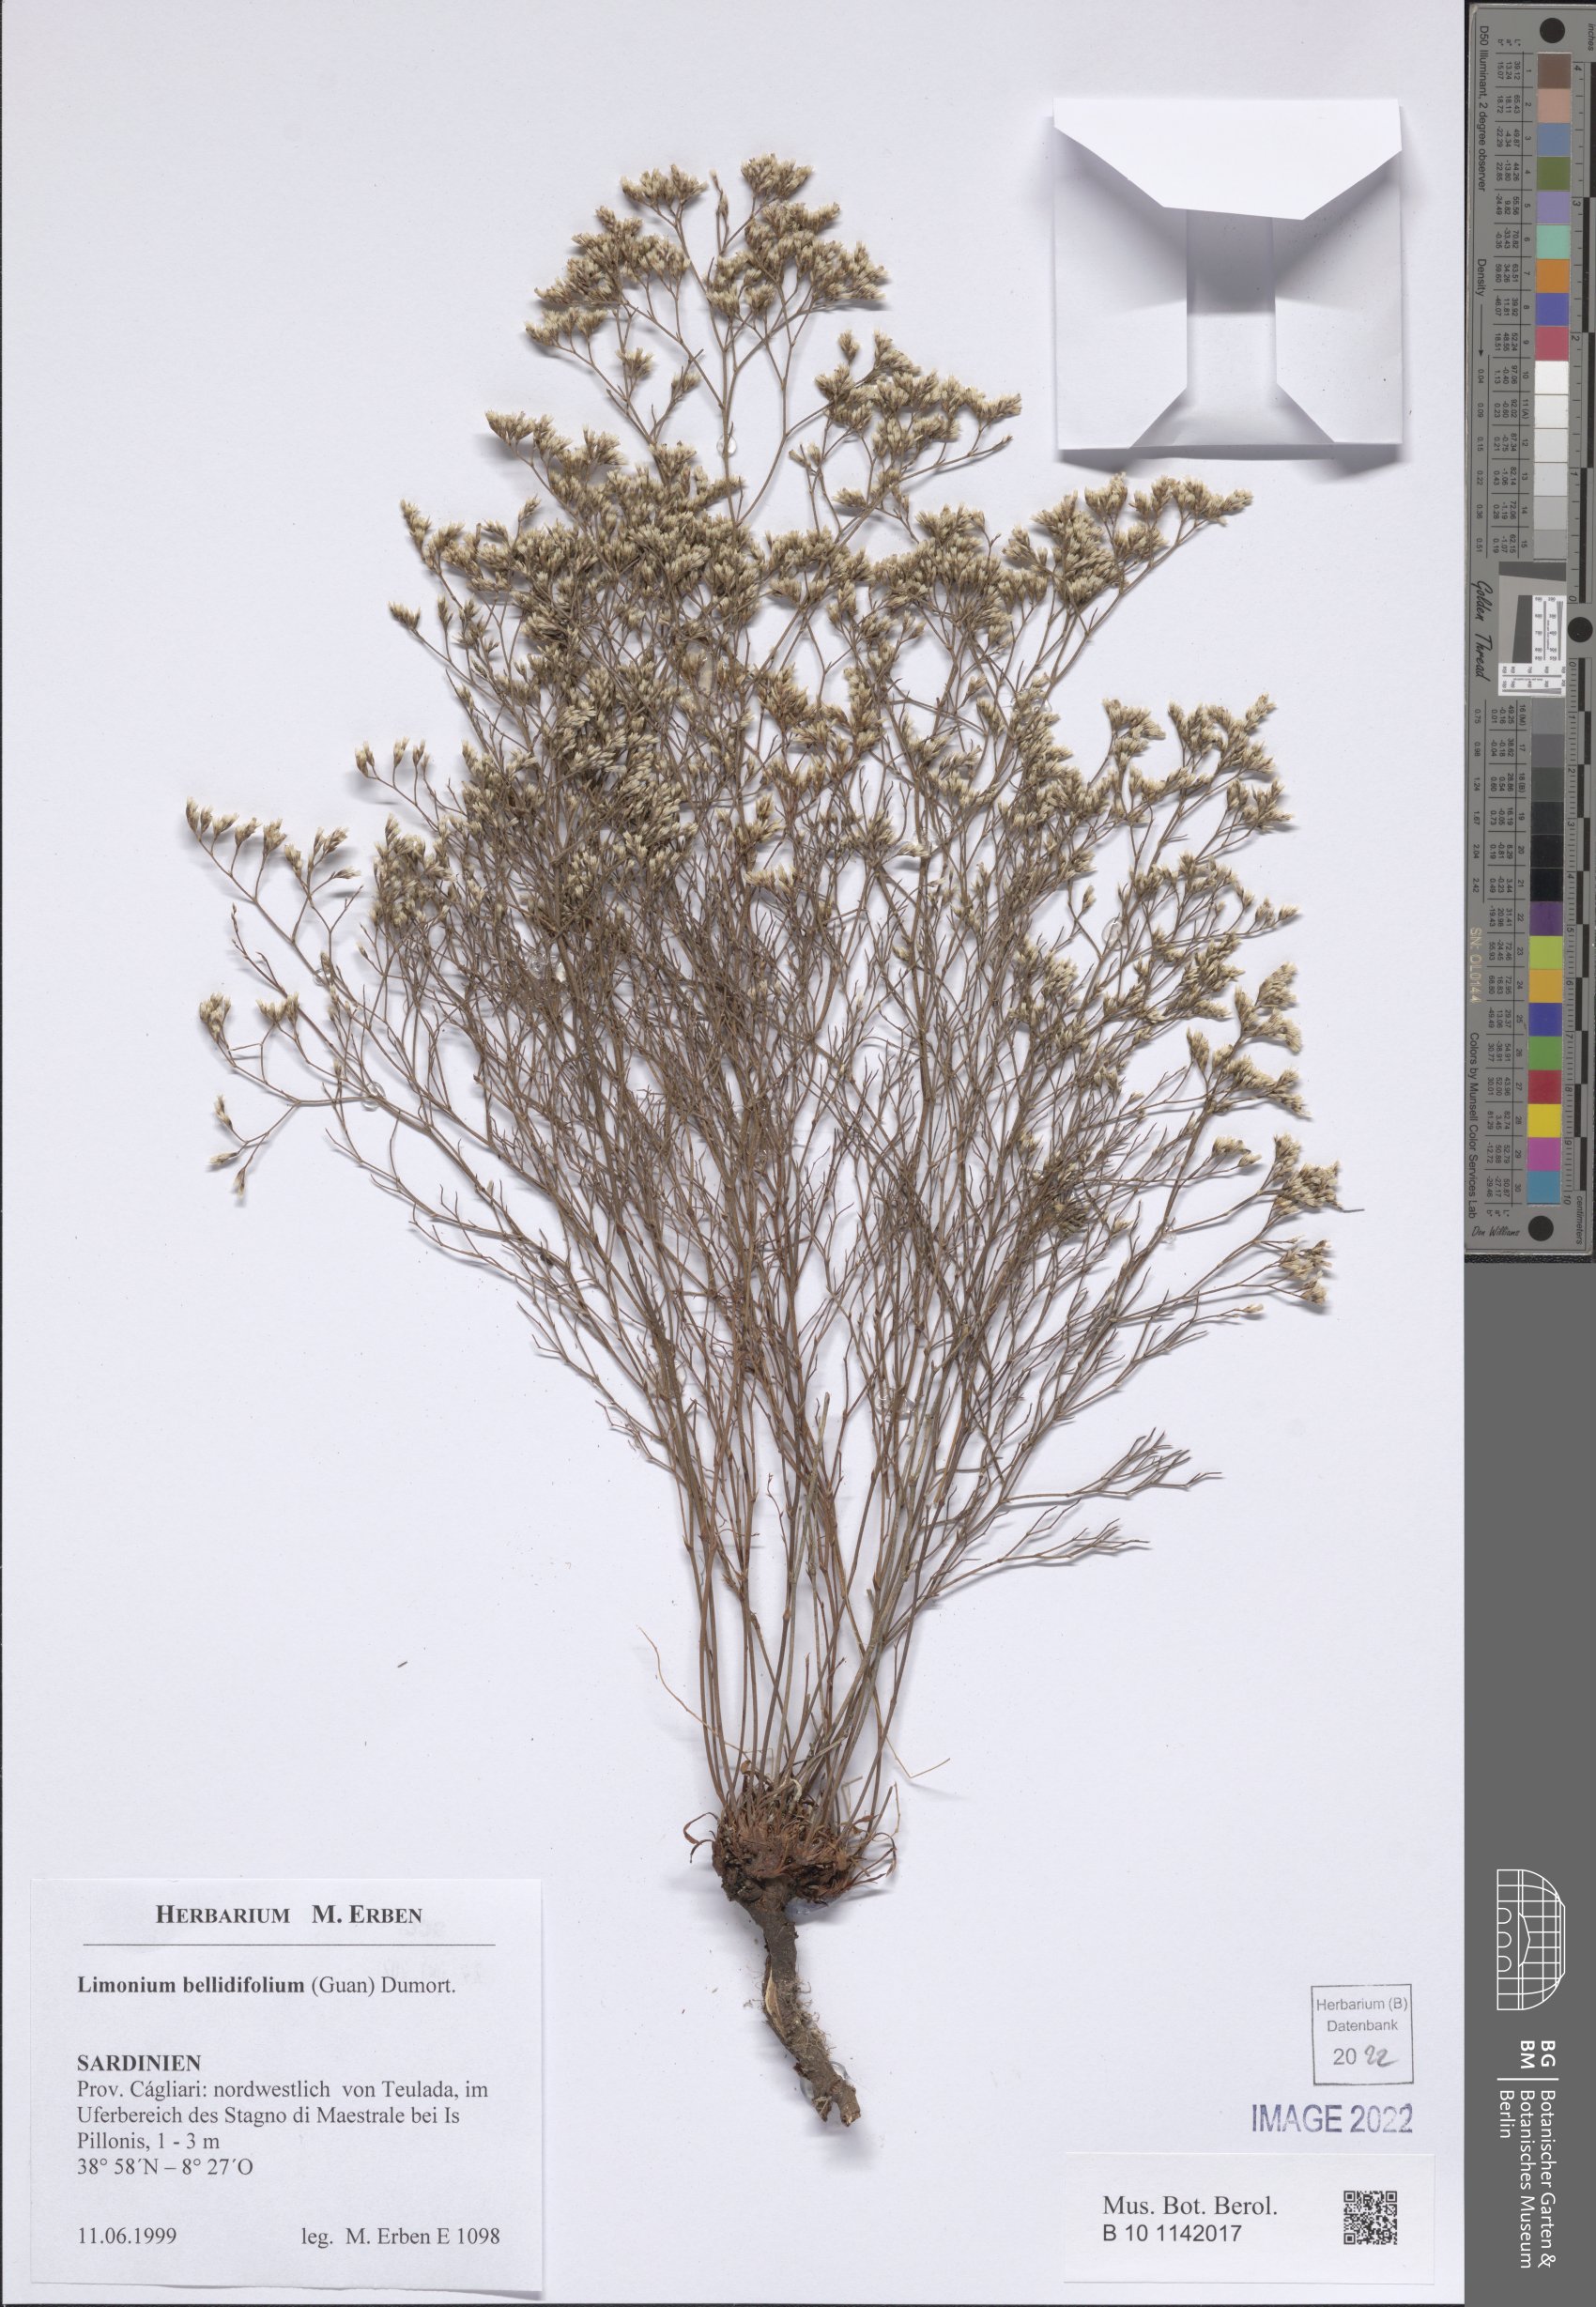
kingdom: Plantae
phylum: Tracheophyta
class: Magnoliopsida
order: Caryophyllales
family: Plumbaginaceae
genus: Limonium
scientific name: Limonium glomeratum
